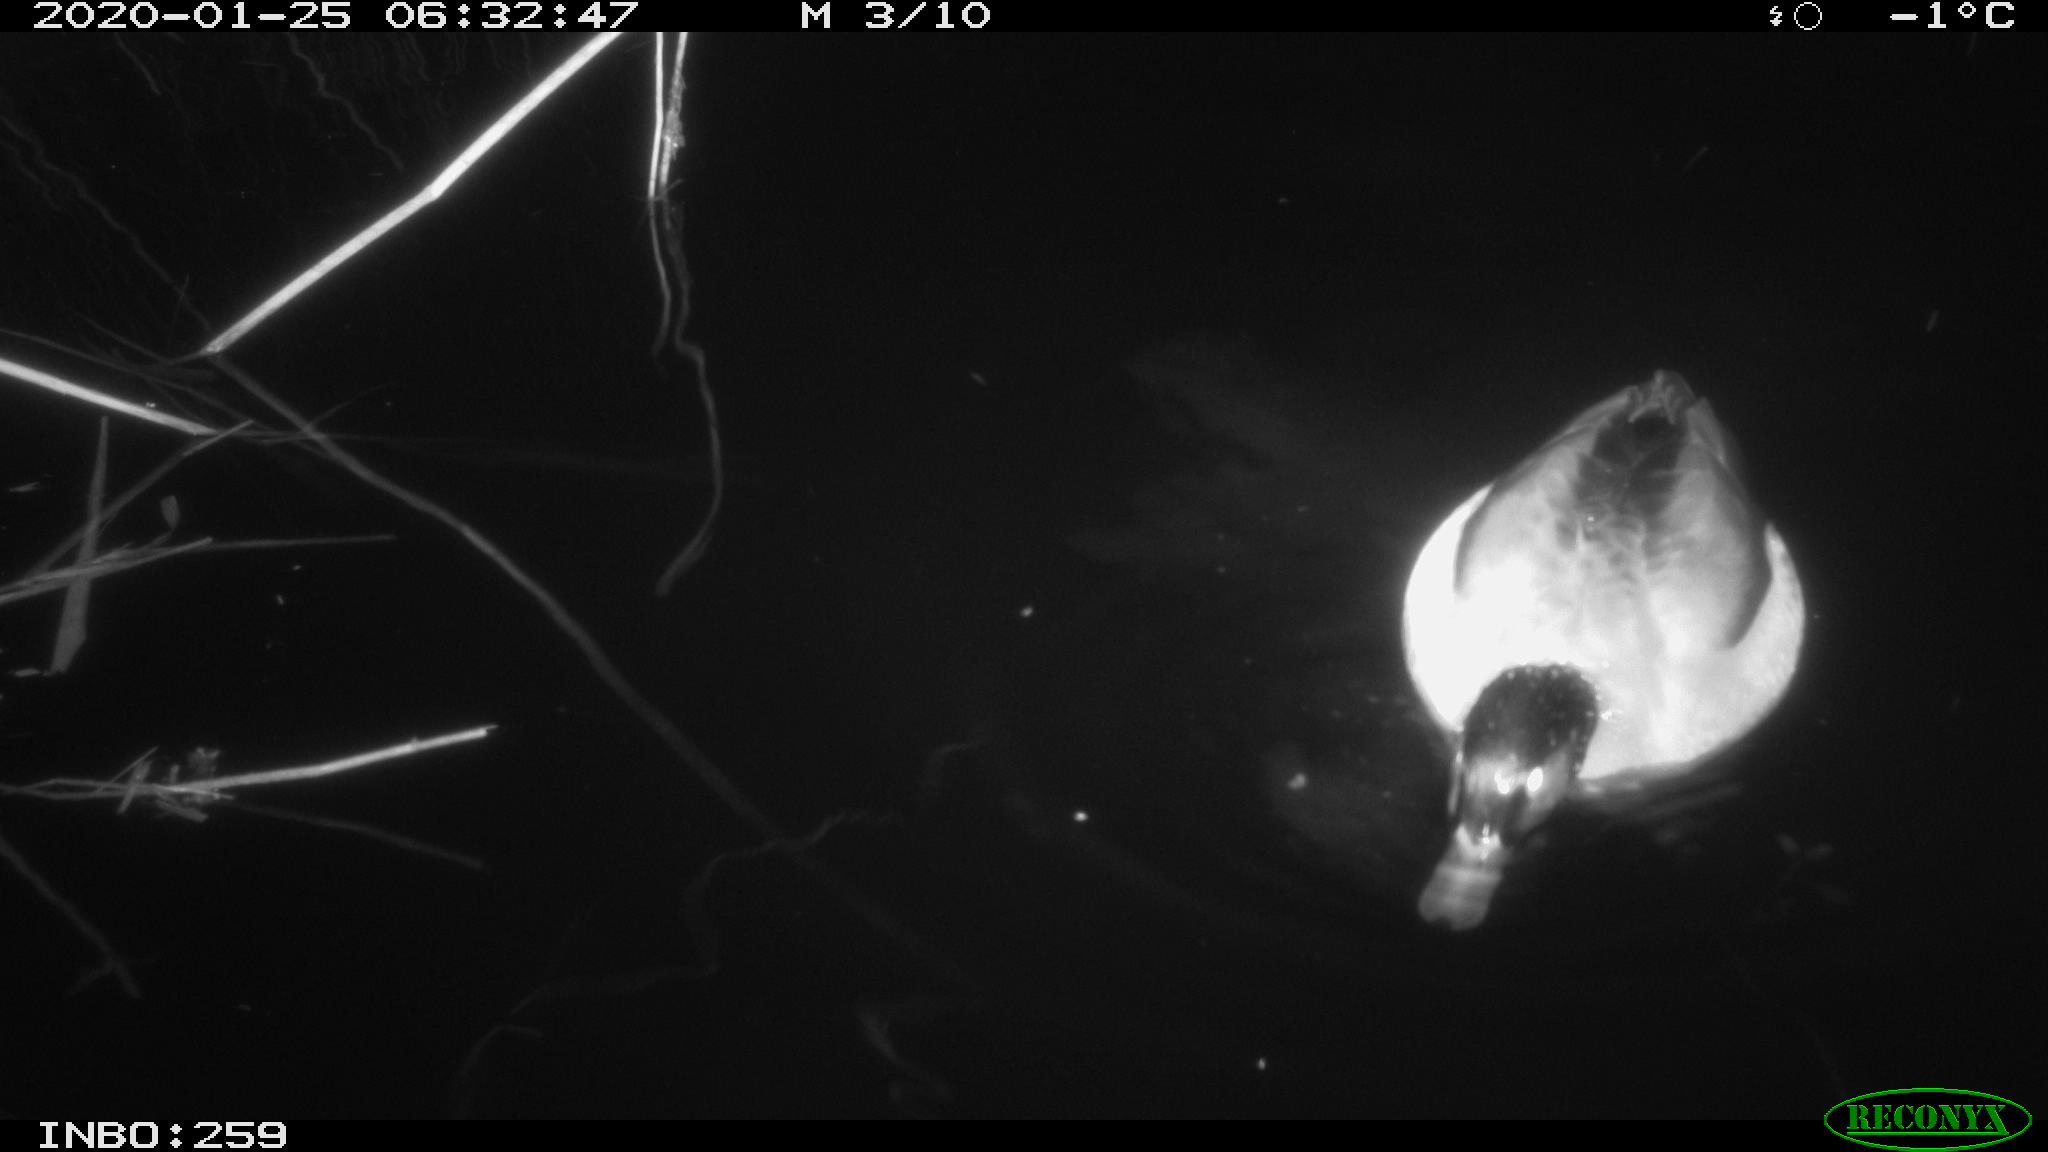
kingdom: Animalia
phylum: Chordata
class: Aves
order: Anseriformes
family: Anatidae
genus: Anas
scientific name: Anas platyrhynchos
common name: Mallard
